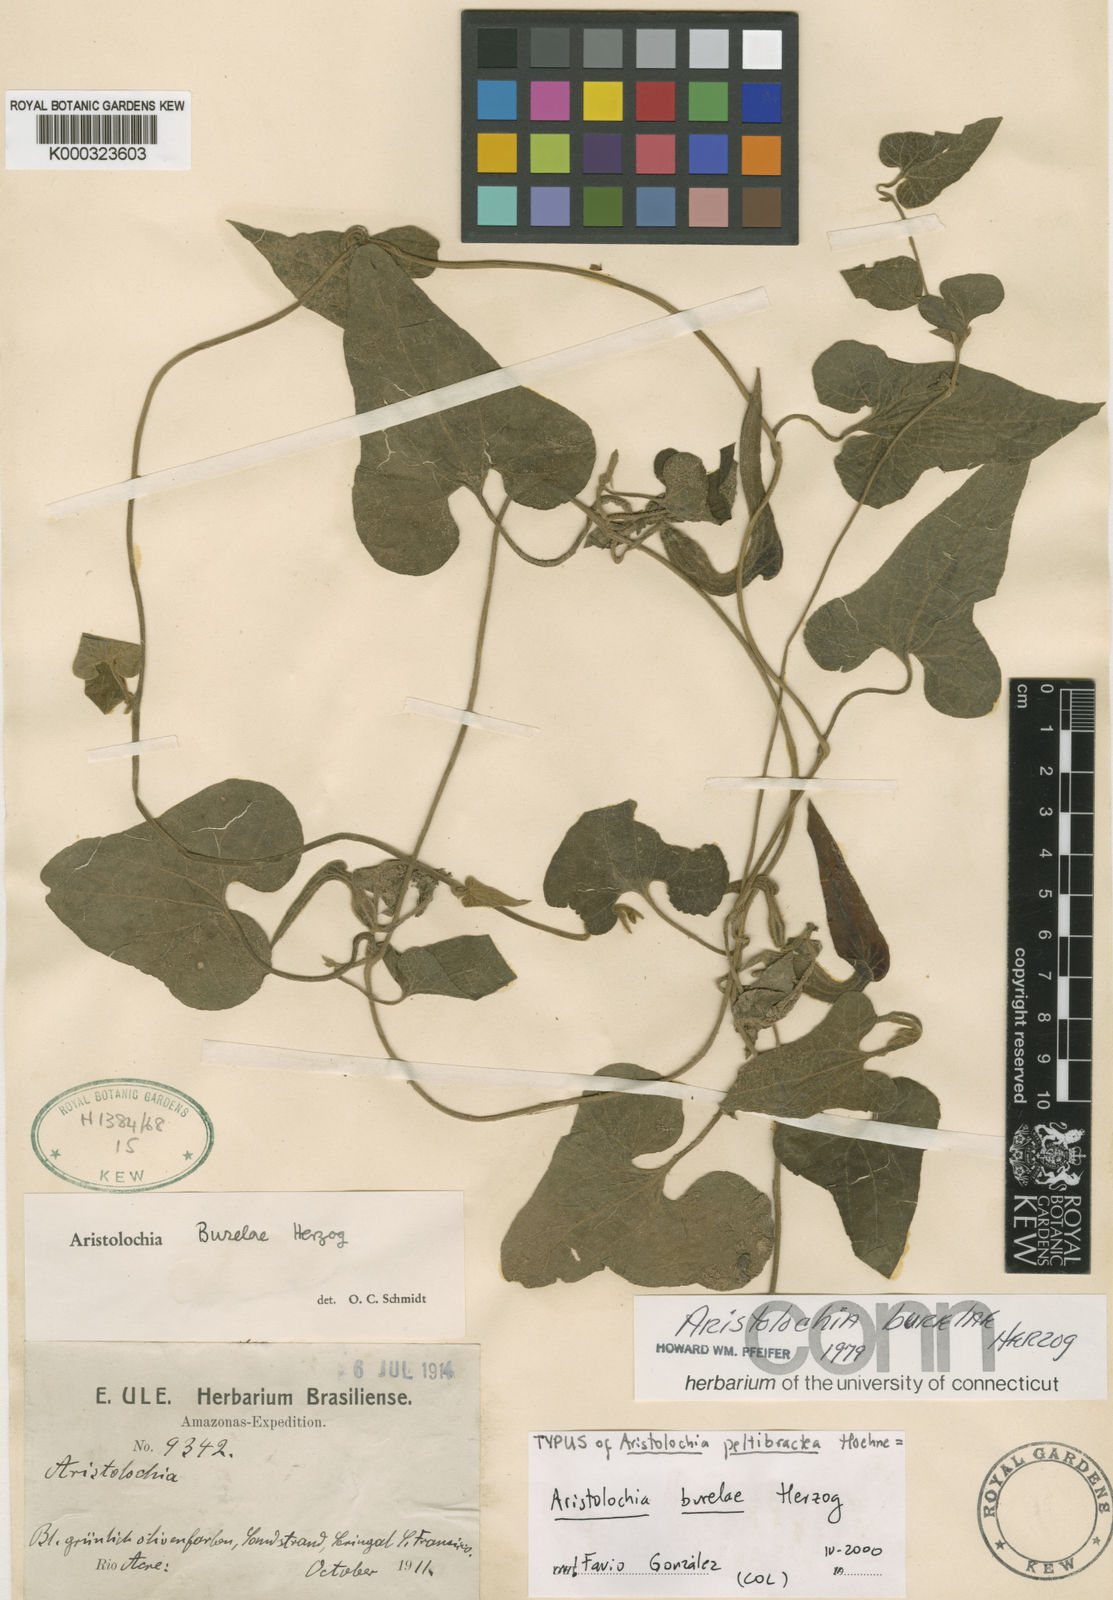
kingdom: Plantae
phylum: Tracheophyta
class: Magnoliopsida
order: Piperales
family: Aristolochiaceae
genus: Aristolochia
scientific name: Aristolochia burelae
